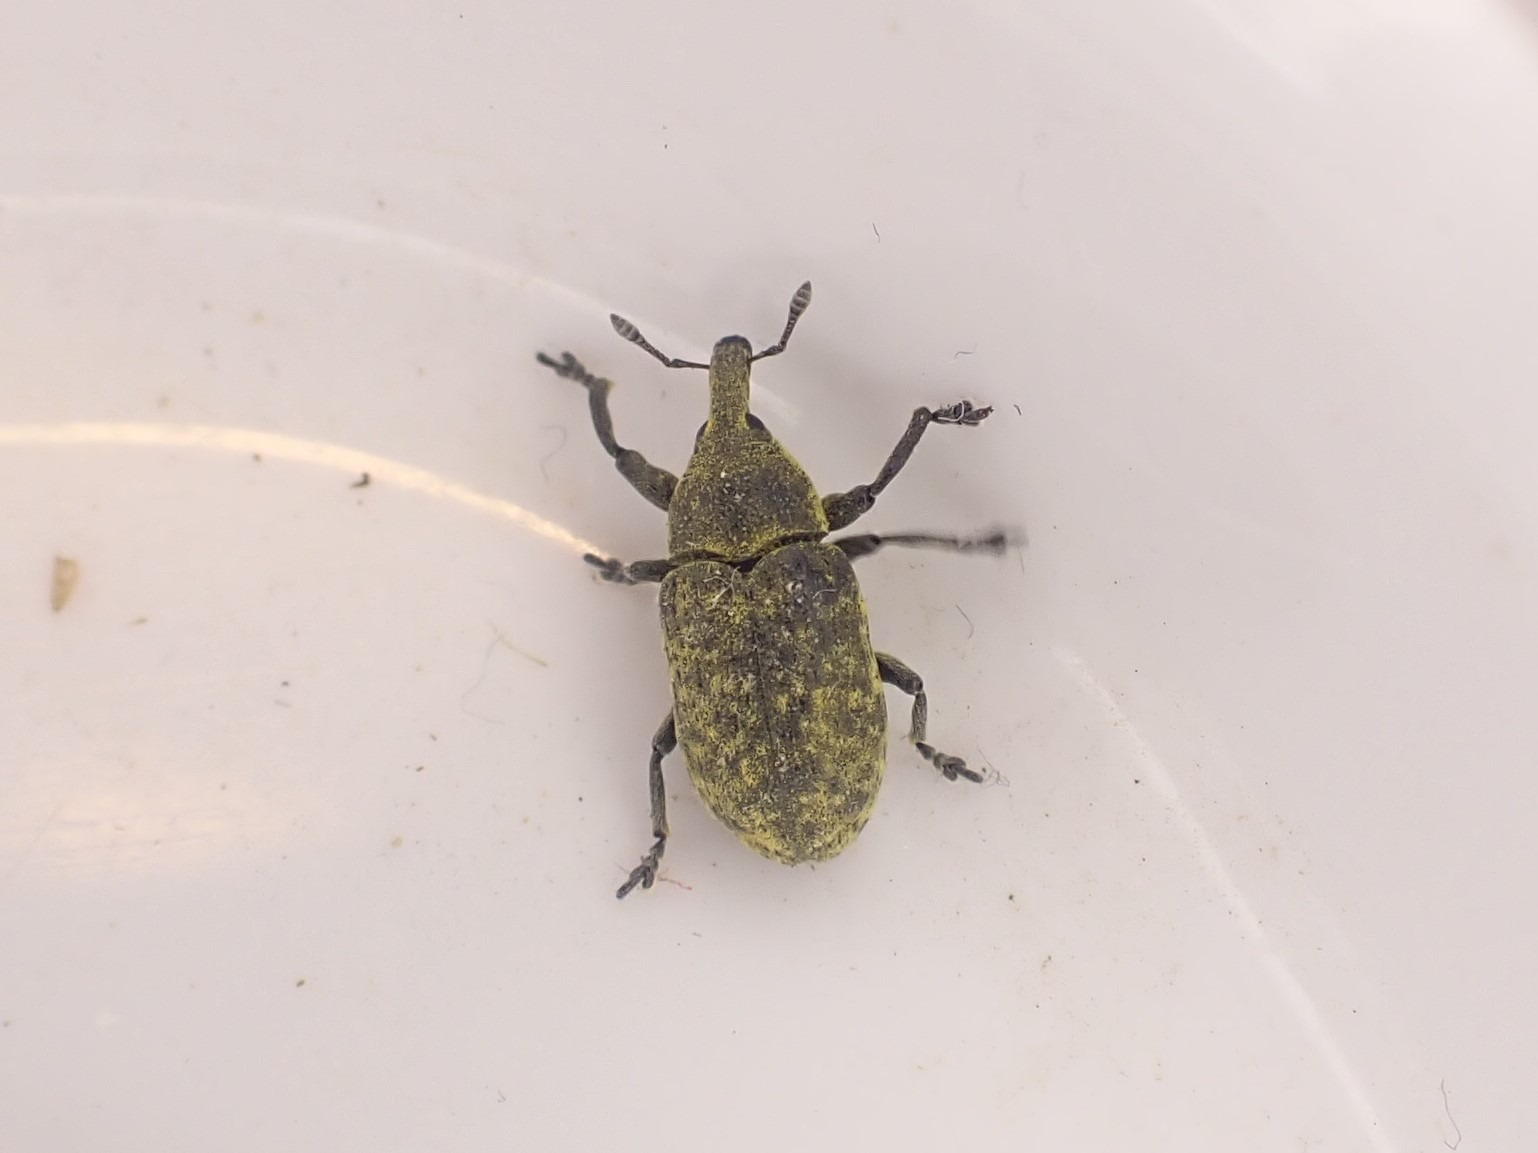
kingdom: Animalia
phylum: Arthropoda
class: Insecta
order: Coleoptera
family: Curculionidae
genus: Larinus
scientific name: Larinus carlinae
